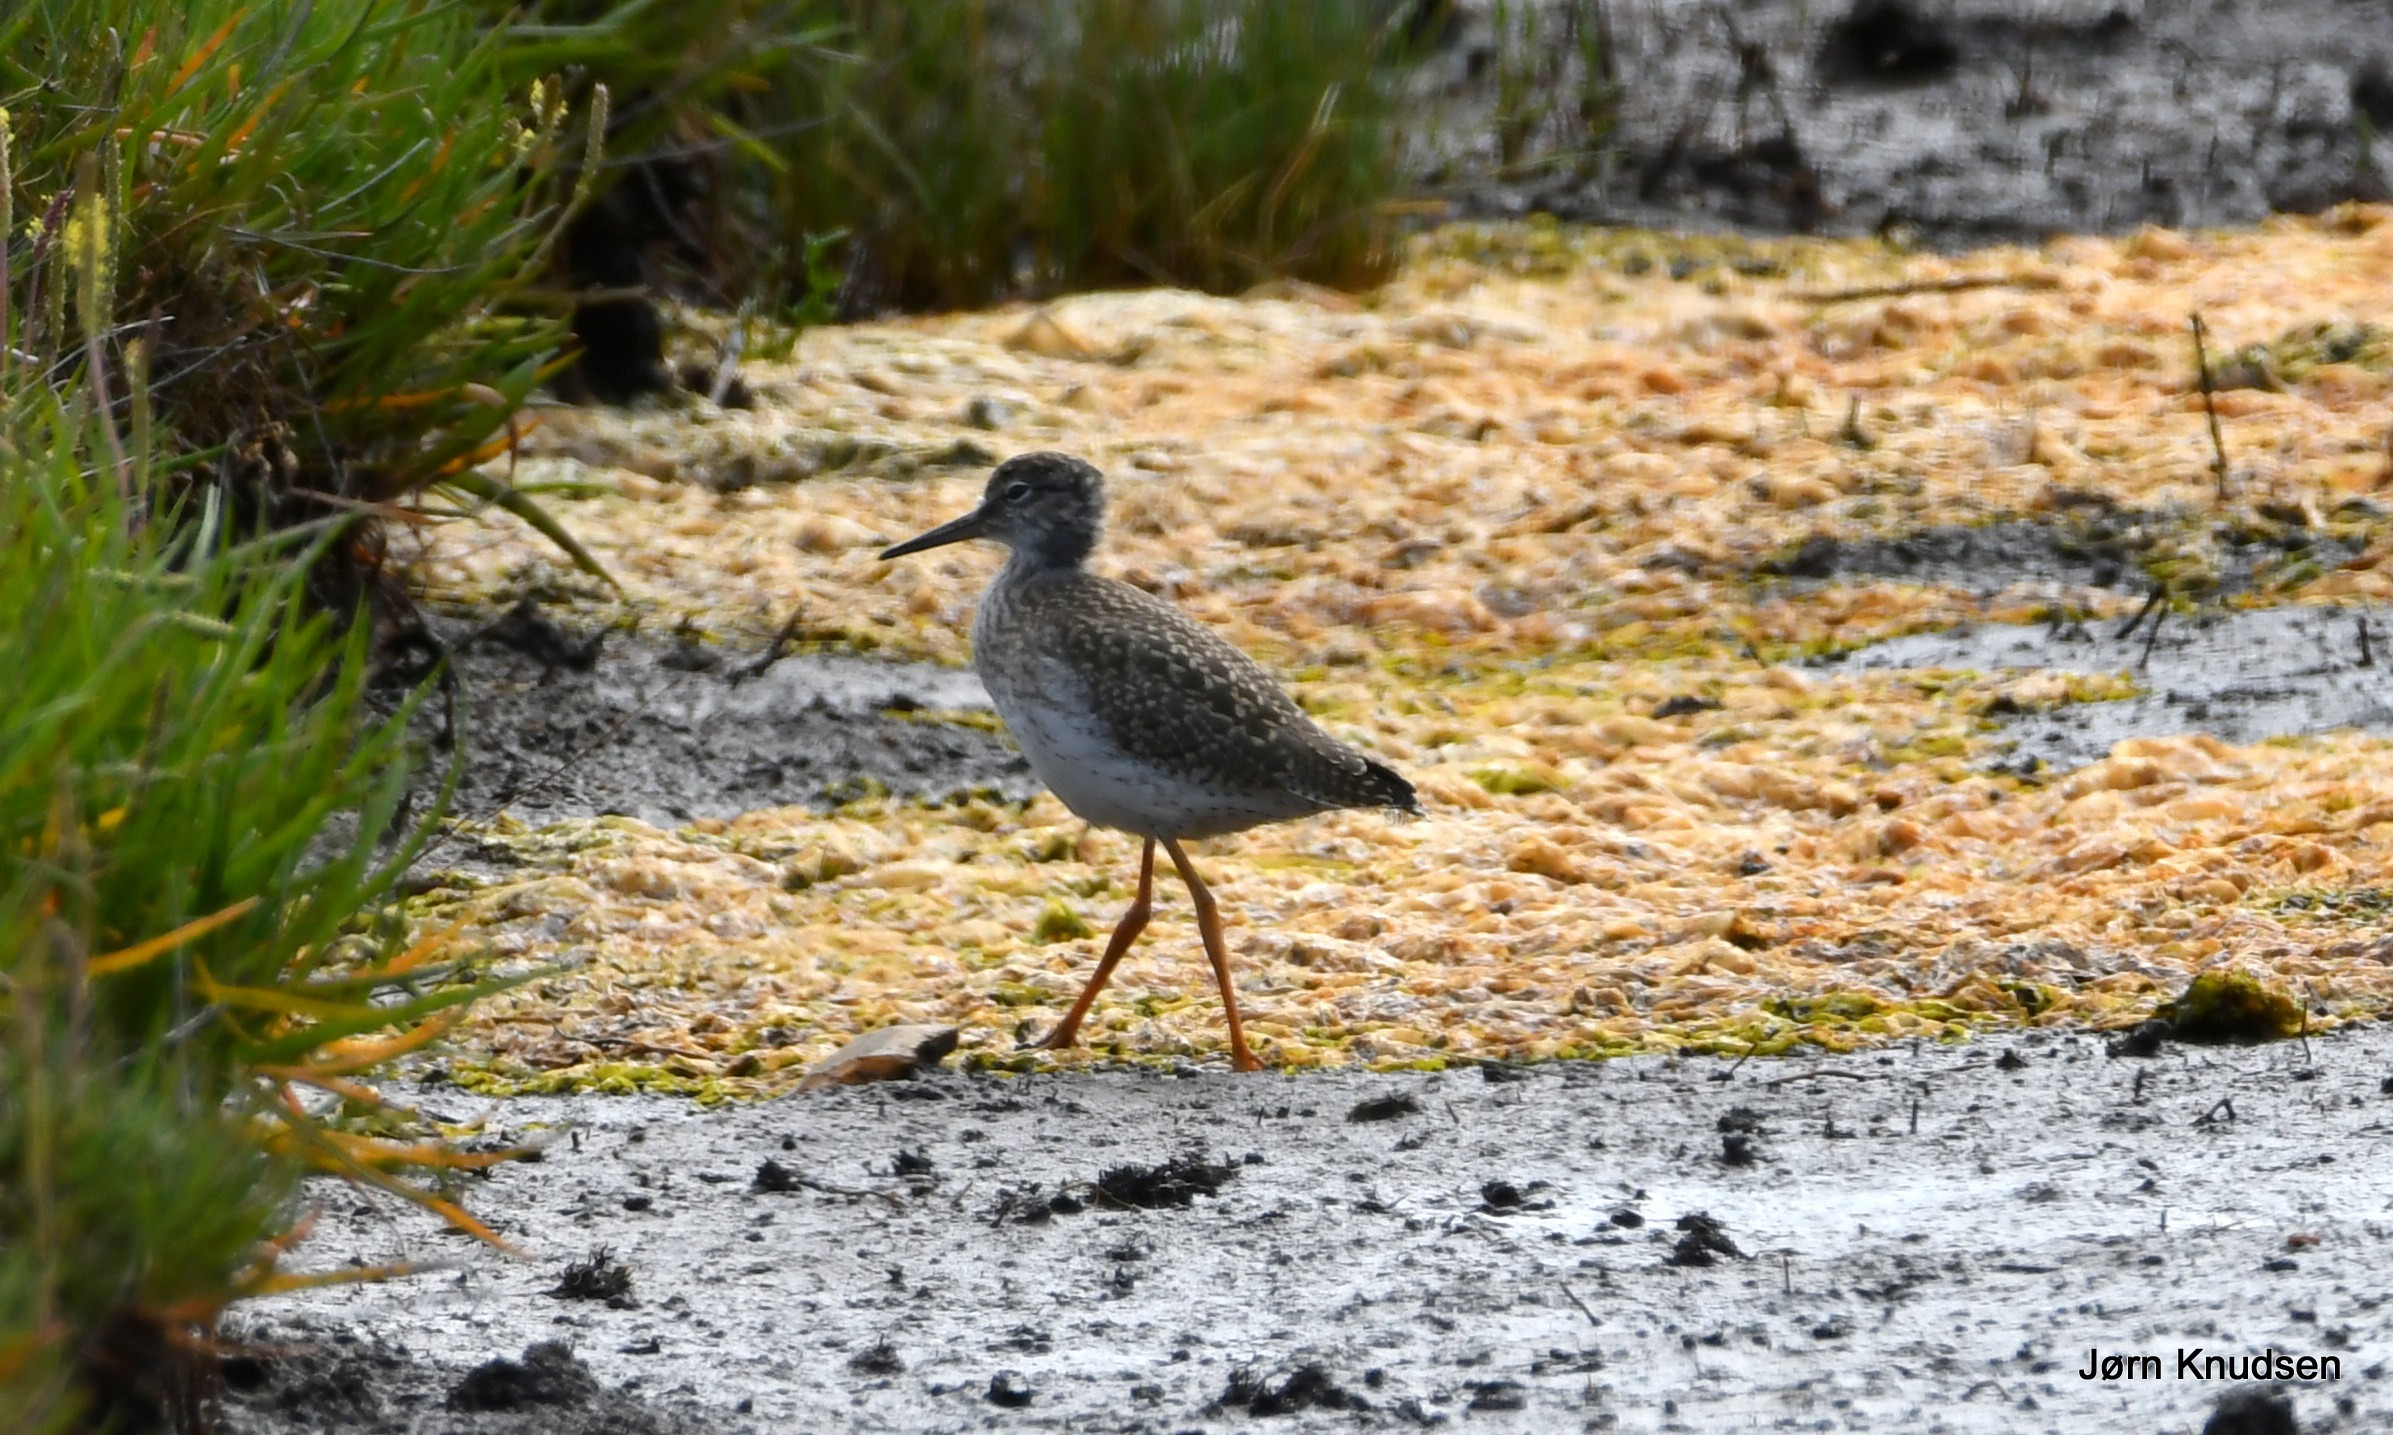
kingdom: Animalia
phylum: Chordata
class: Aves
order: Charadriiformes
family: Scolopacidae
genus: Tringa
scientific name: Tringa totanus
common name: Rødben
